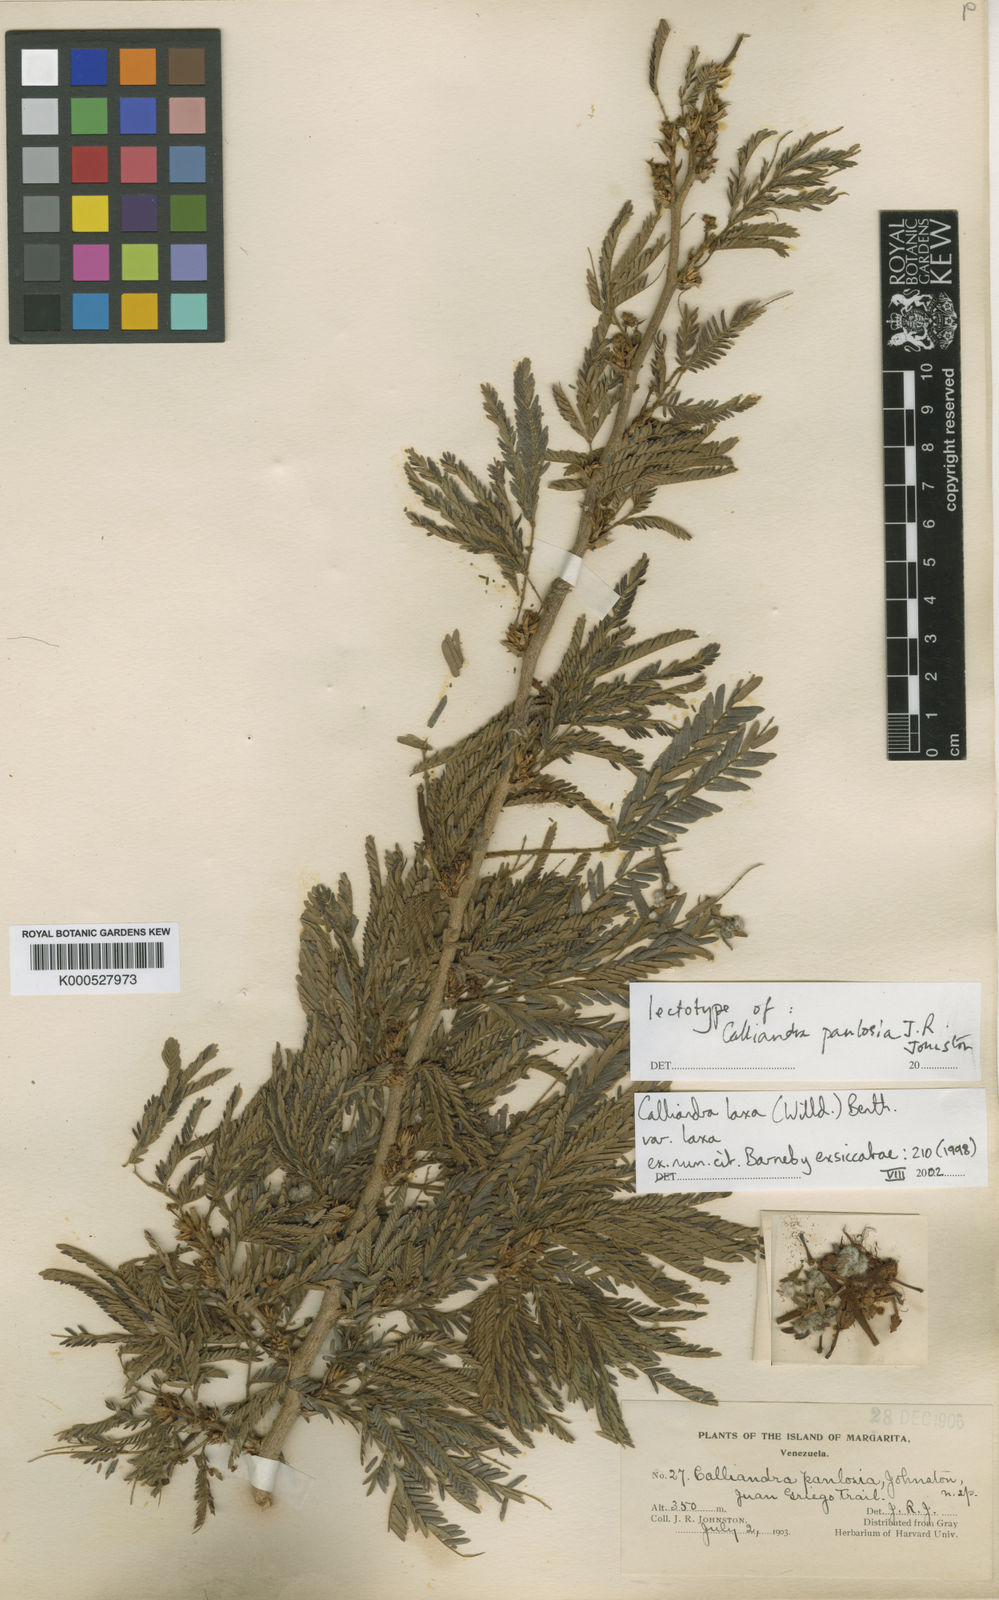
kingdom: Plantae
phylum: Tracheophyta
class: Magnoliopsida
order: Fabales
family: Fabaceae
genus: Calliandra
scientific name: Calliandra laxa
